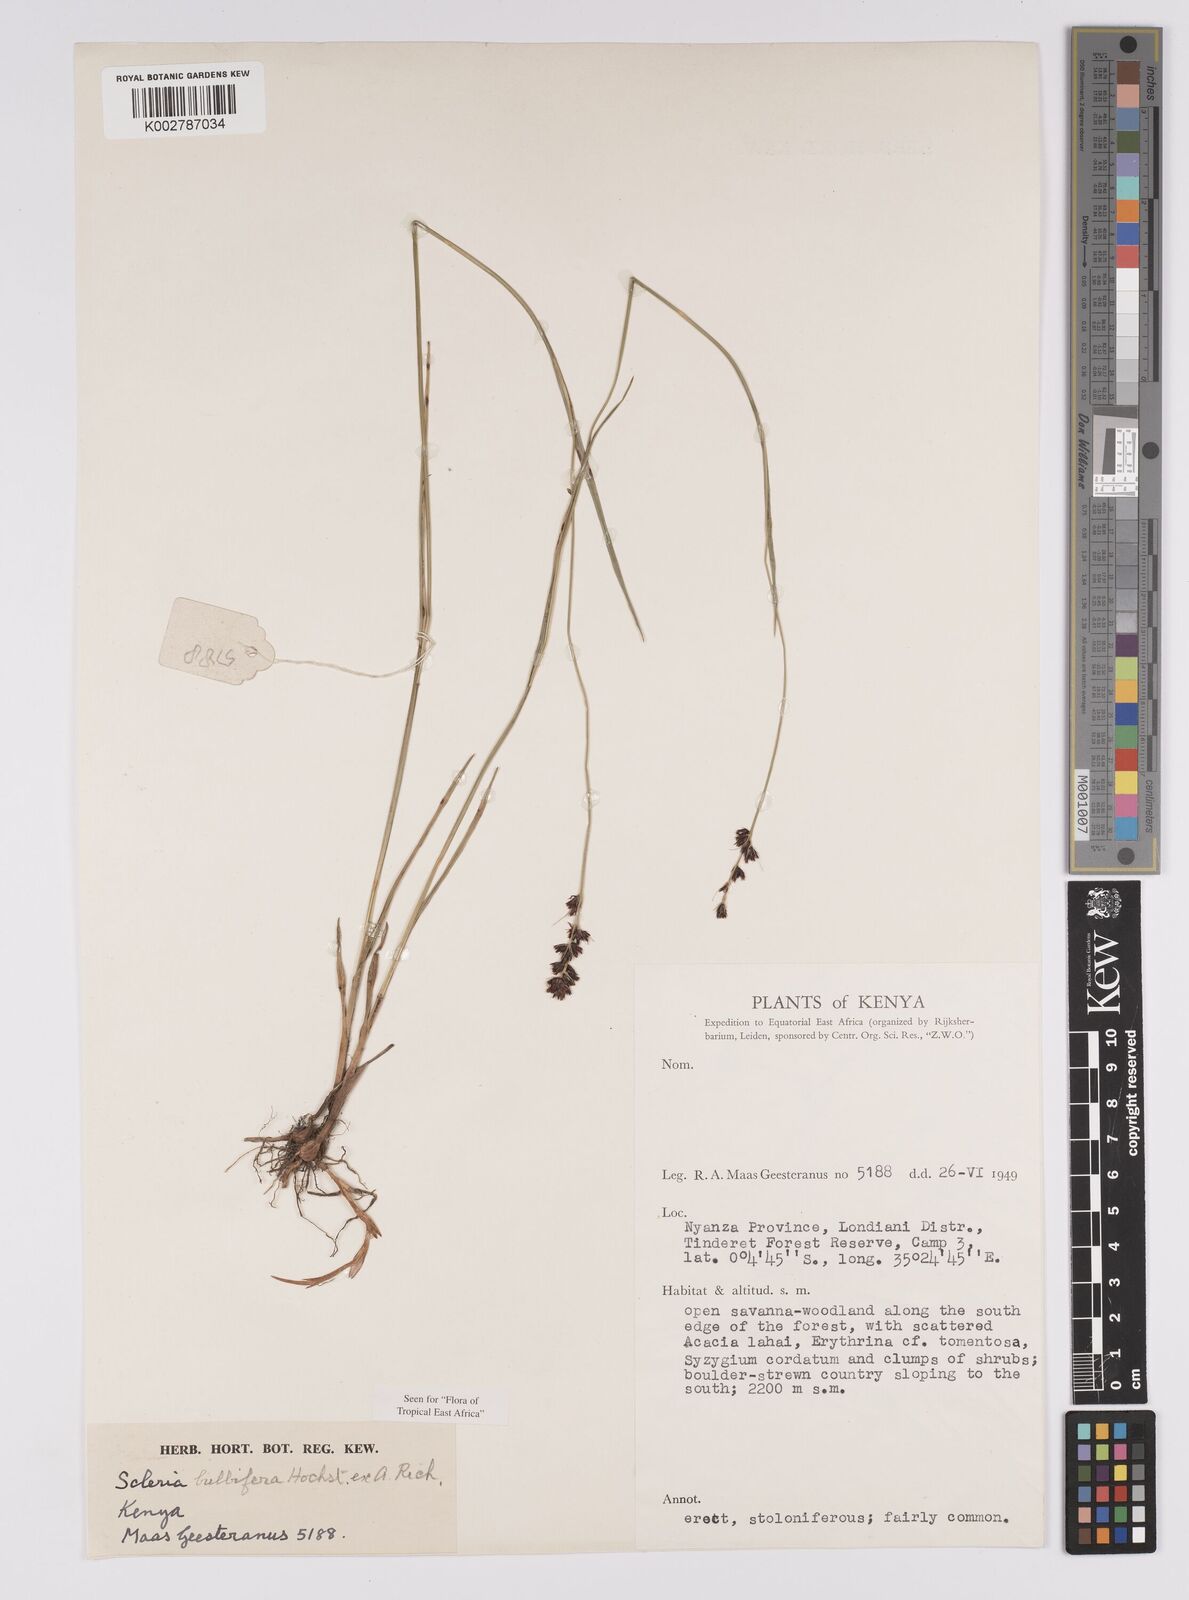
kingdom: Plantae
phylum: Tracheophyta
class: Liliopsida
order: Poales
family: Cyperaceae
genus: Scleria
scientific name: Scleria bulbifera
